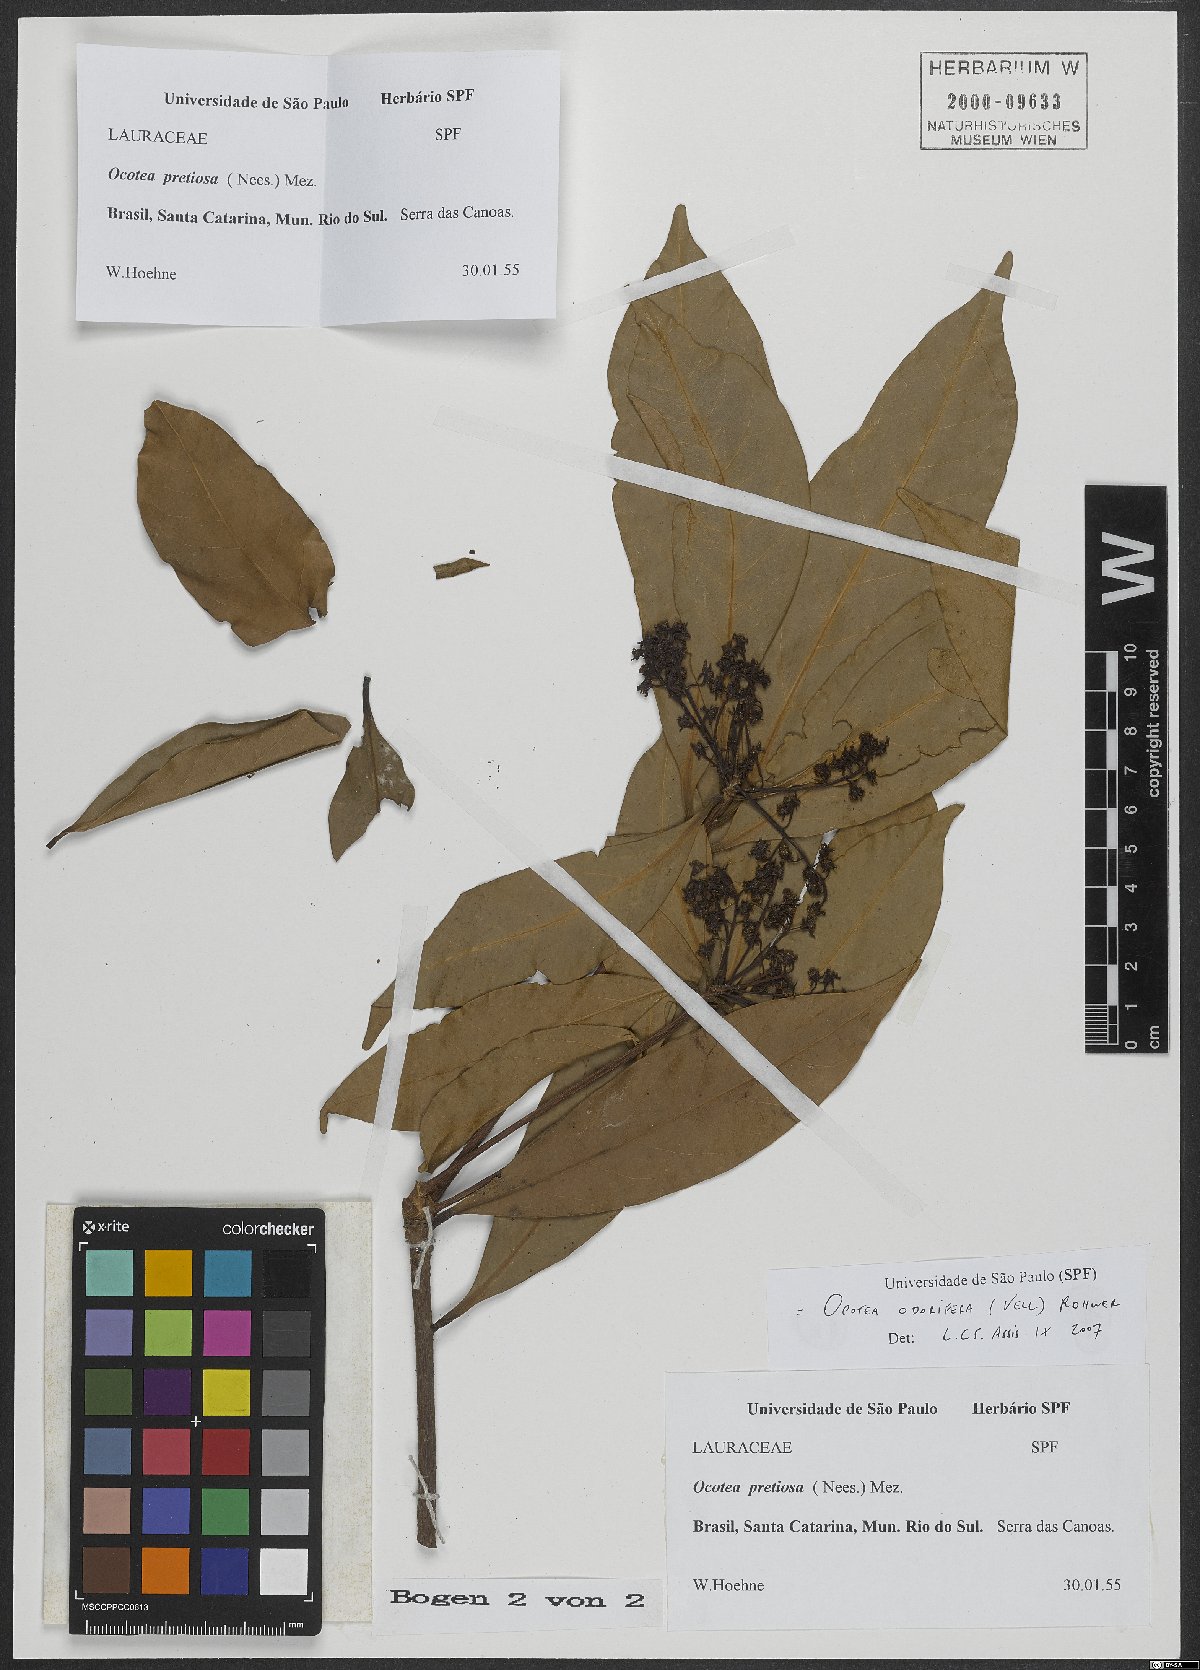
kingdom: Plantae
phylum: Tracheophyta
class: Magnoliopsida
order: Laurales
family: Lauraceae
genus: Mespilodaphne
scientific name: Mespilodaphne quixos
